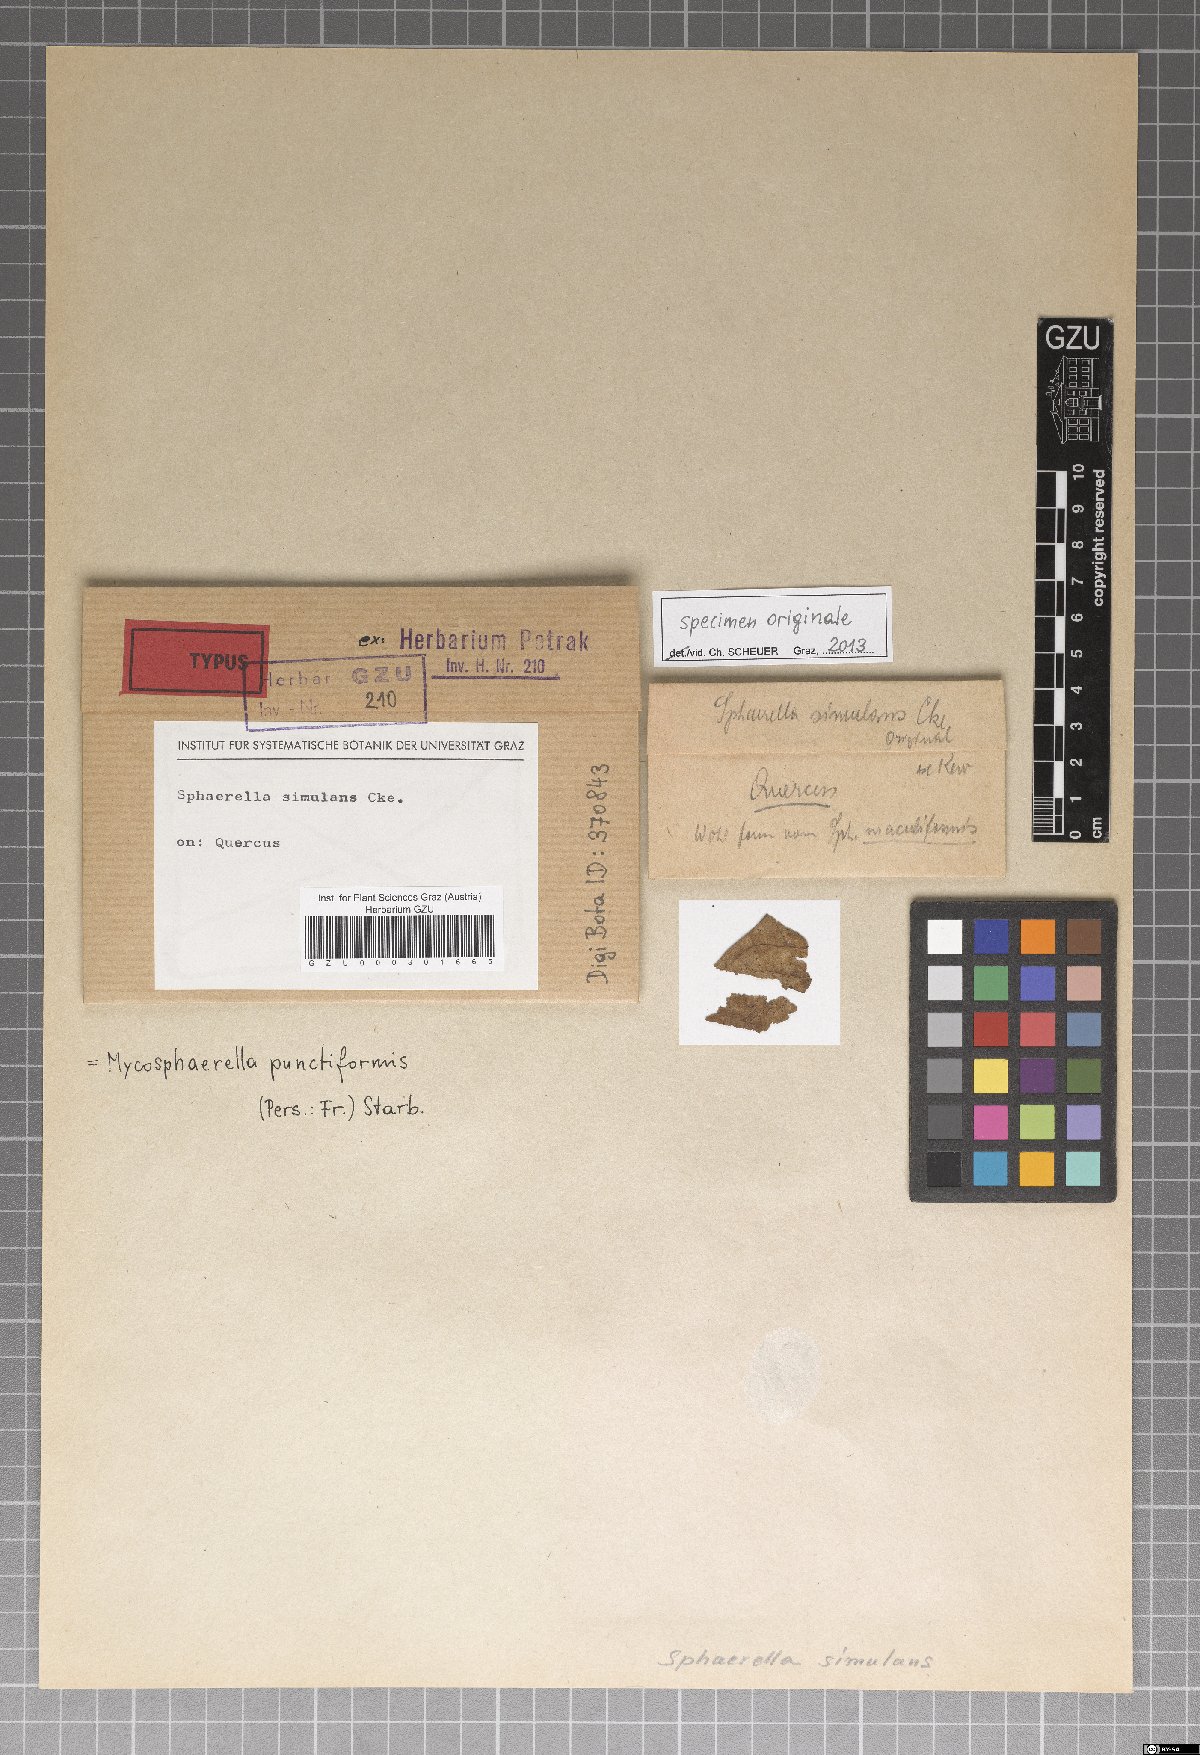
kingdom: Fungi
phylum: Ascomycota
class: Dothideomycetes
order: Mycosphaerellales
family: Mycosphaerellaceae
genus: Mycosphaerella
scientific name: Mycosphaerella punctiformis
